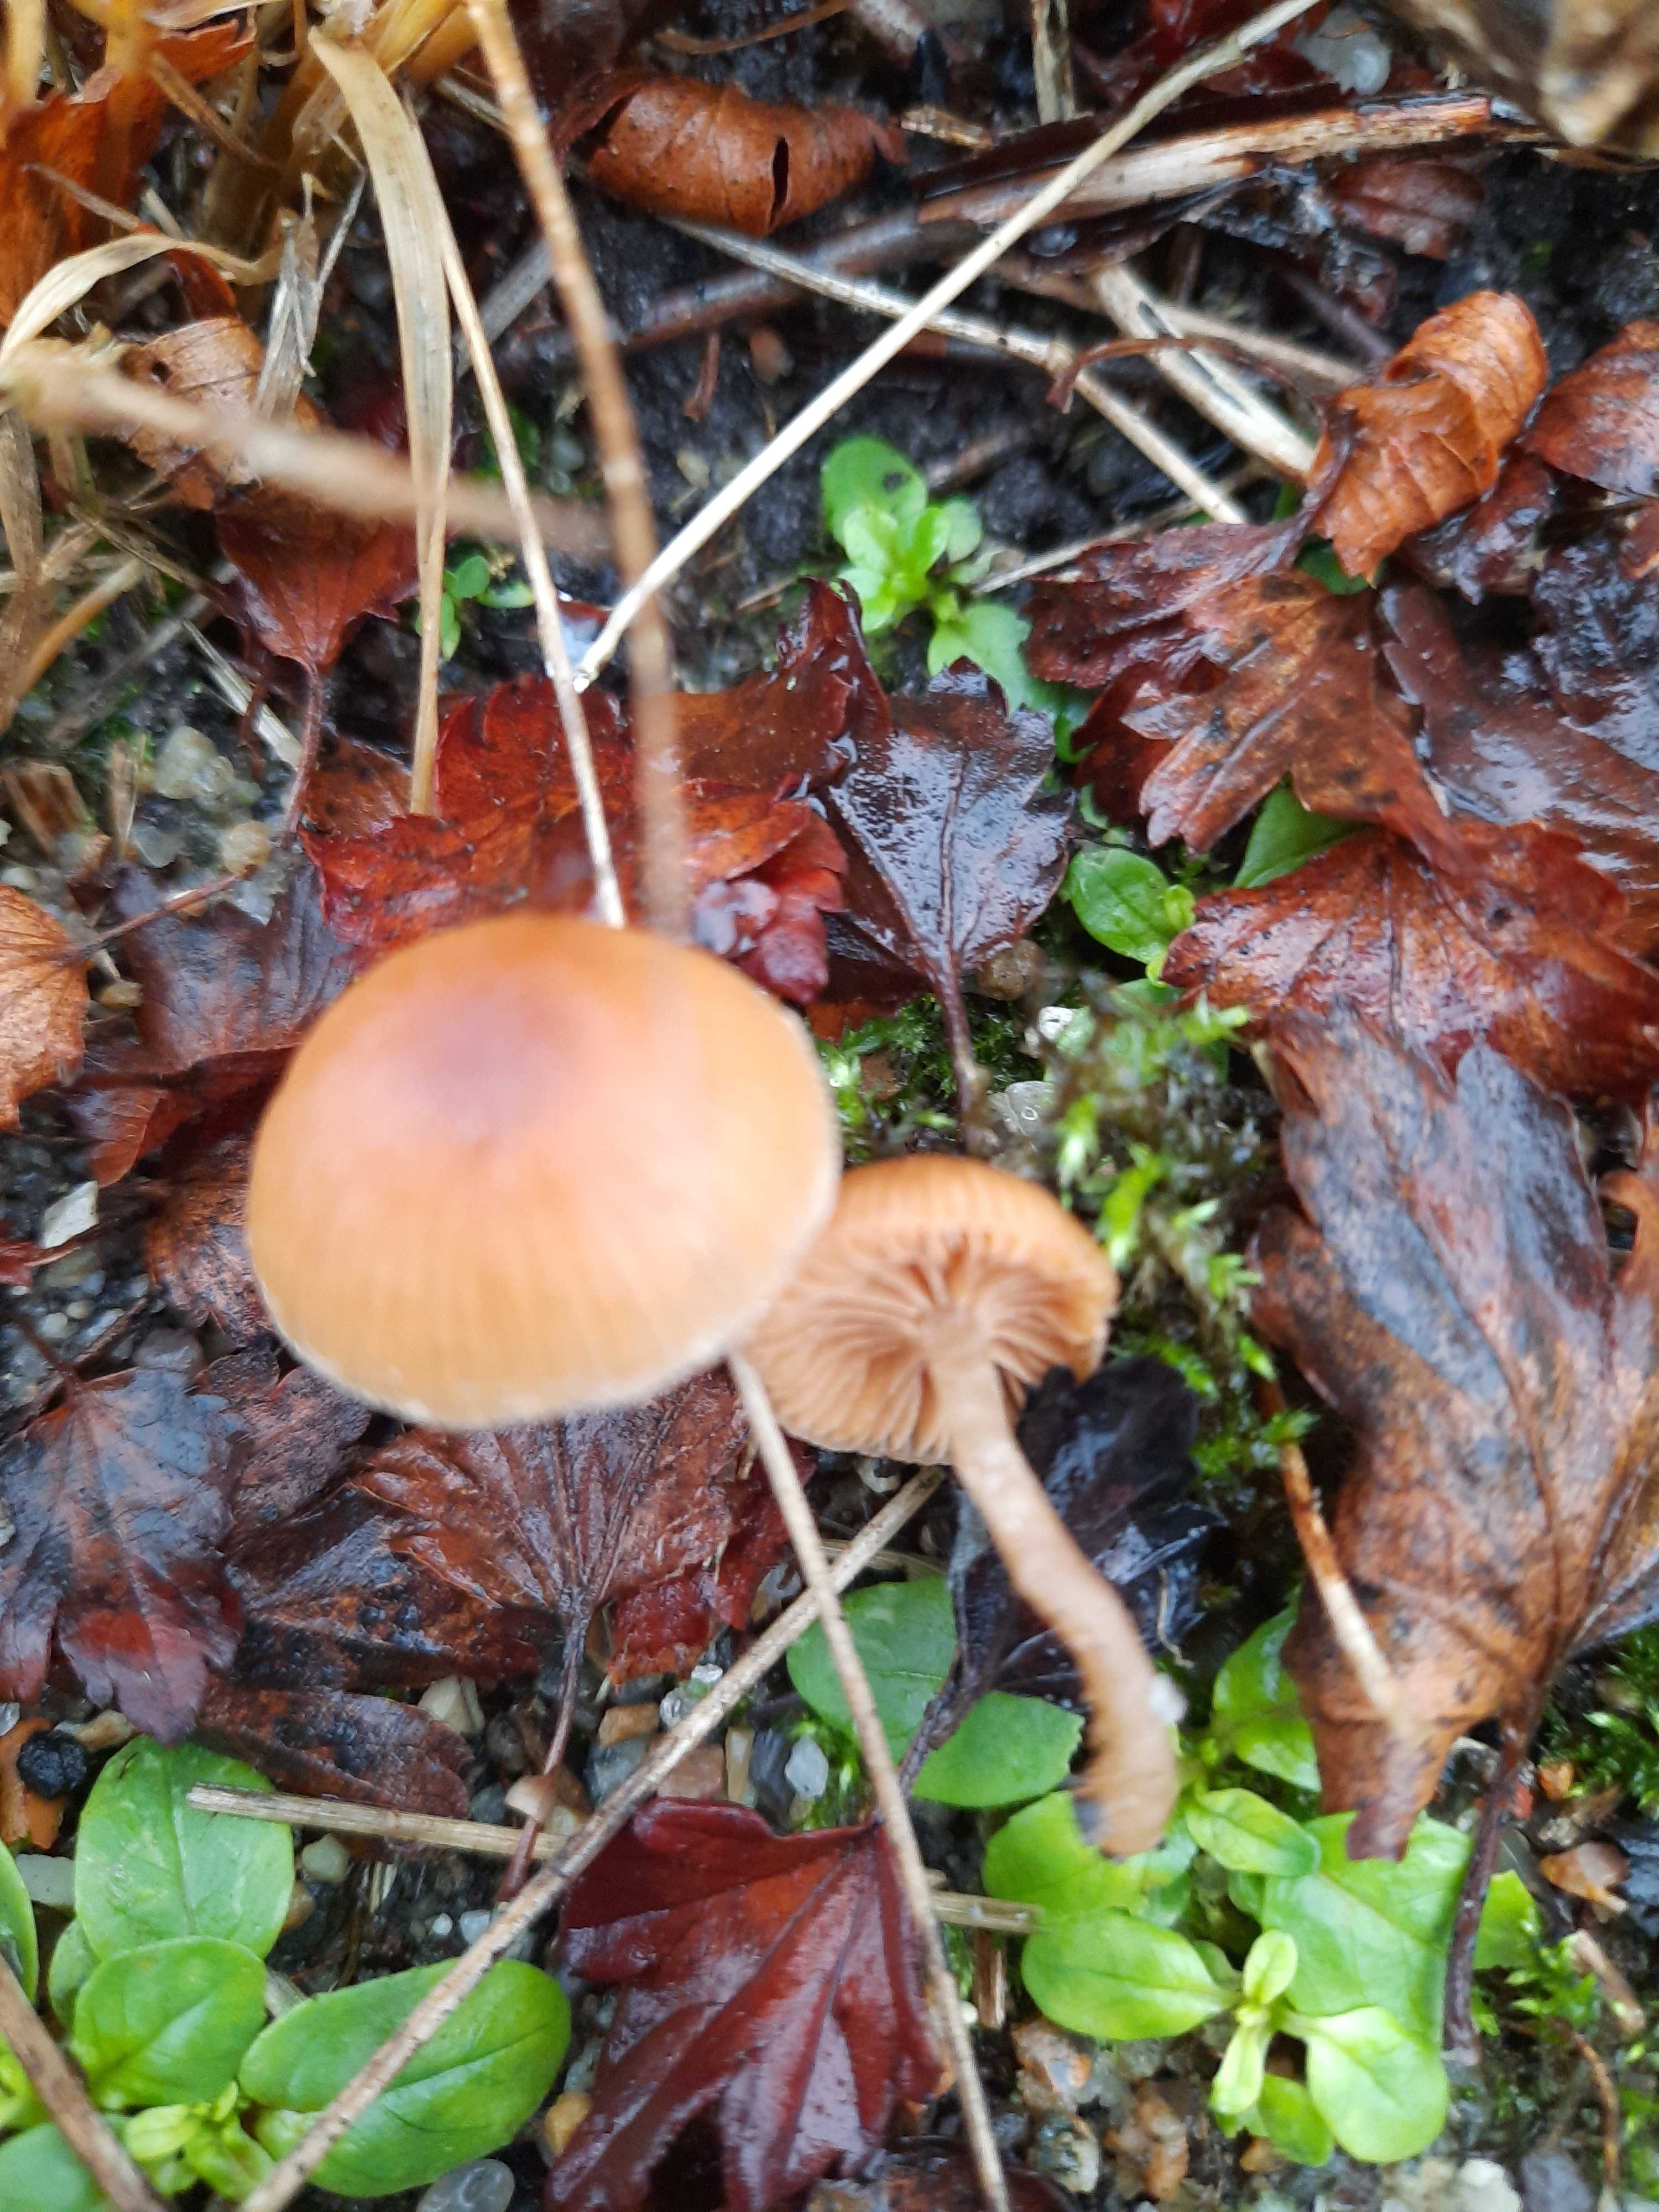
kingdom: Fungi
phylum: Basidiomycota
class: Agaricomycetes
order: Agaricales
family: Tubariaceae
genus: Tubaria
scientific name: Tubaria furfuracea
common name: kliddet fnughat
